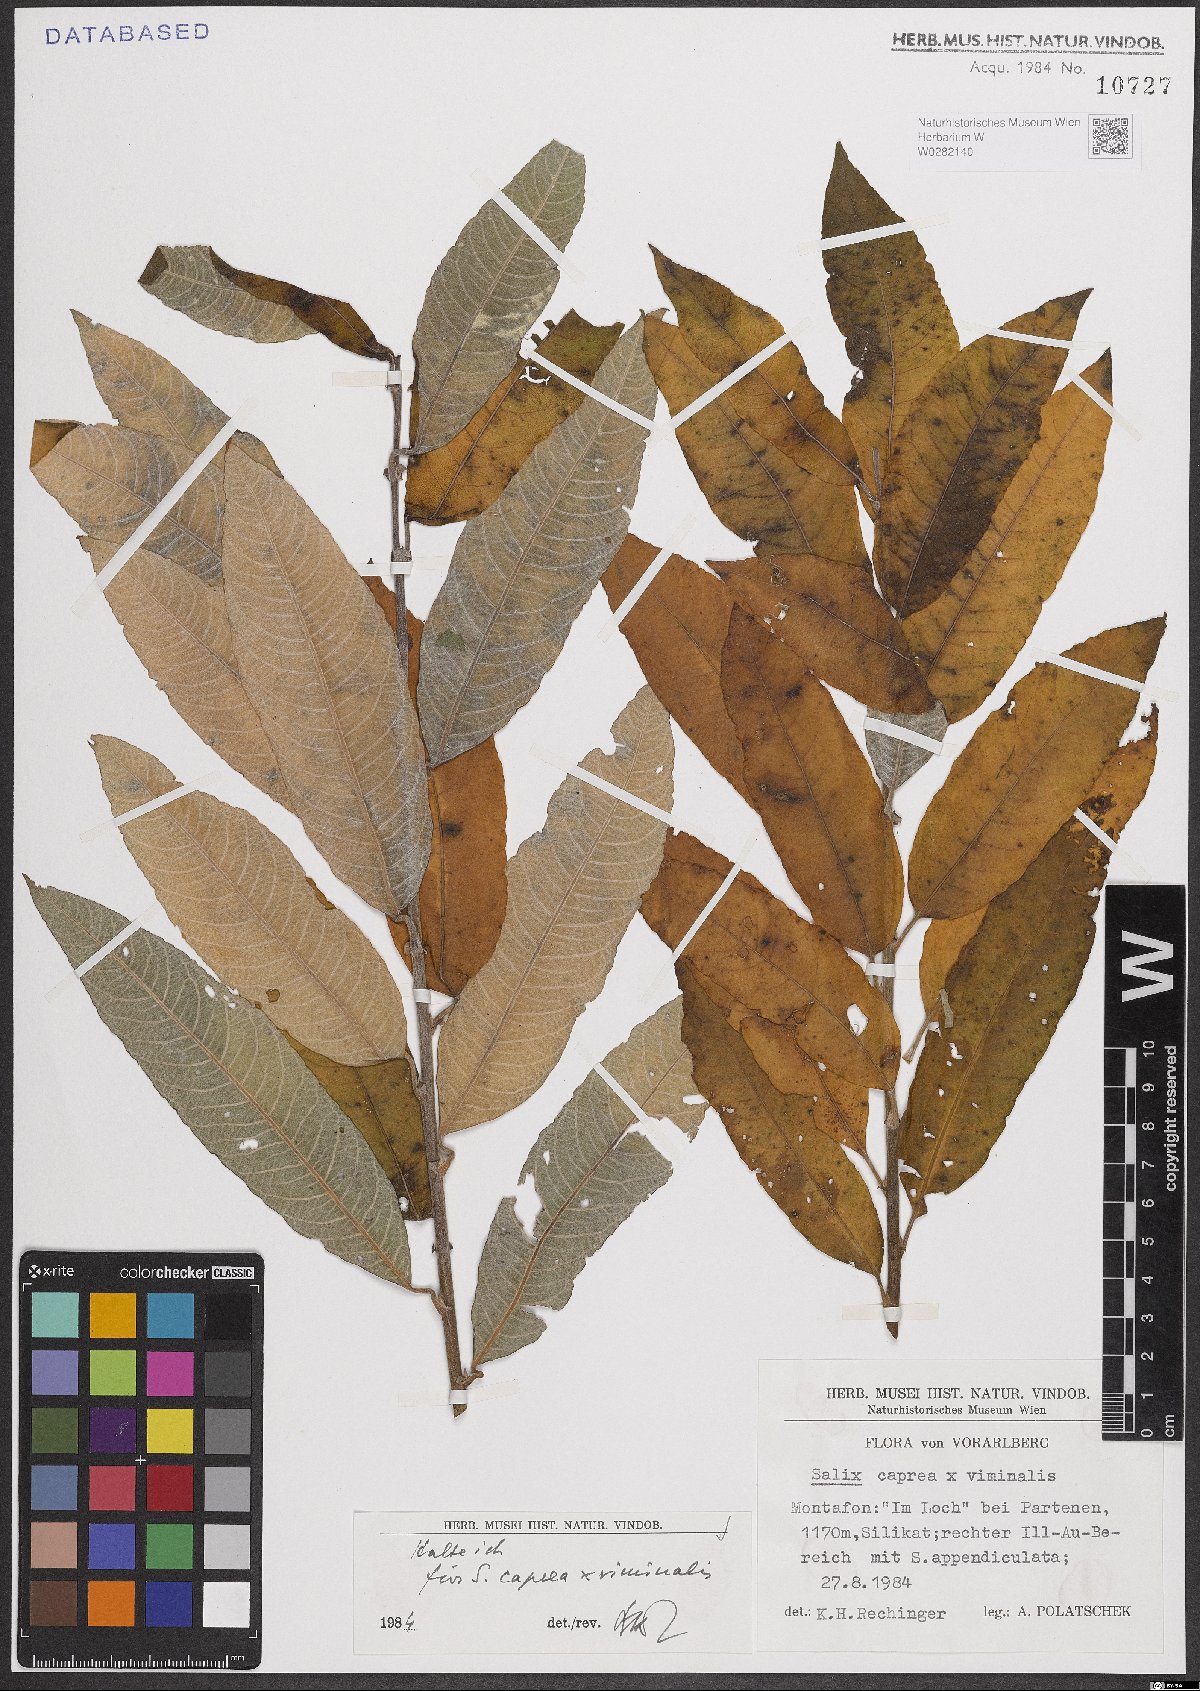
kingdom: Plantae
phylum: Tracheophyta
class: Magnoliopsida
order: Malpighiales
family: Salicaceae
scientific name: Salicaceae
